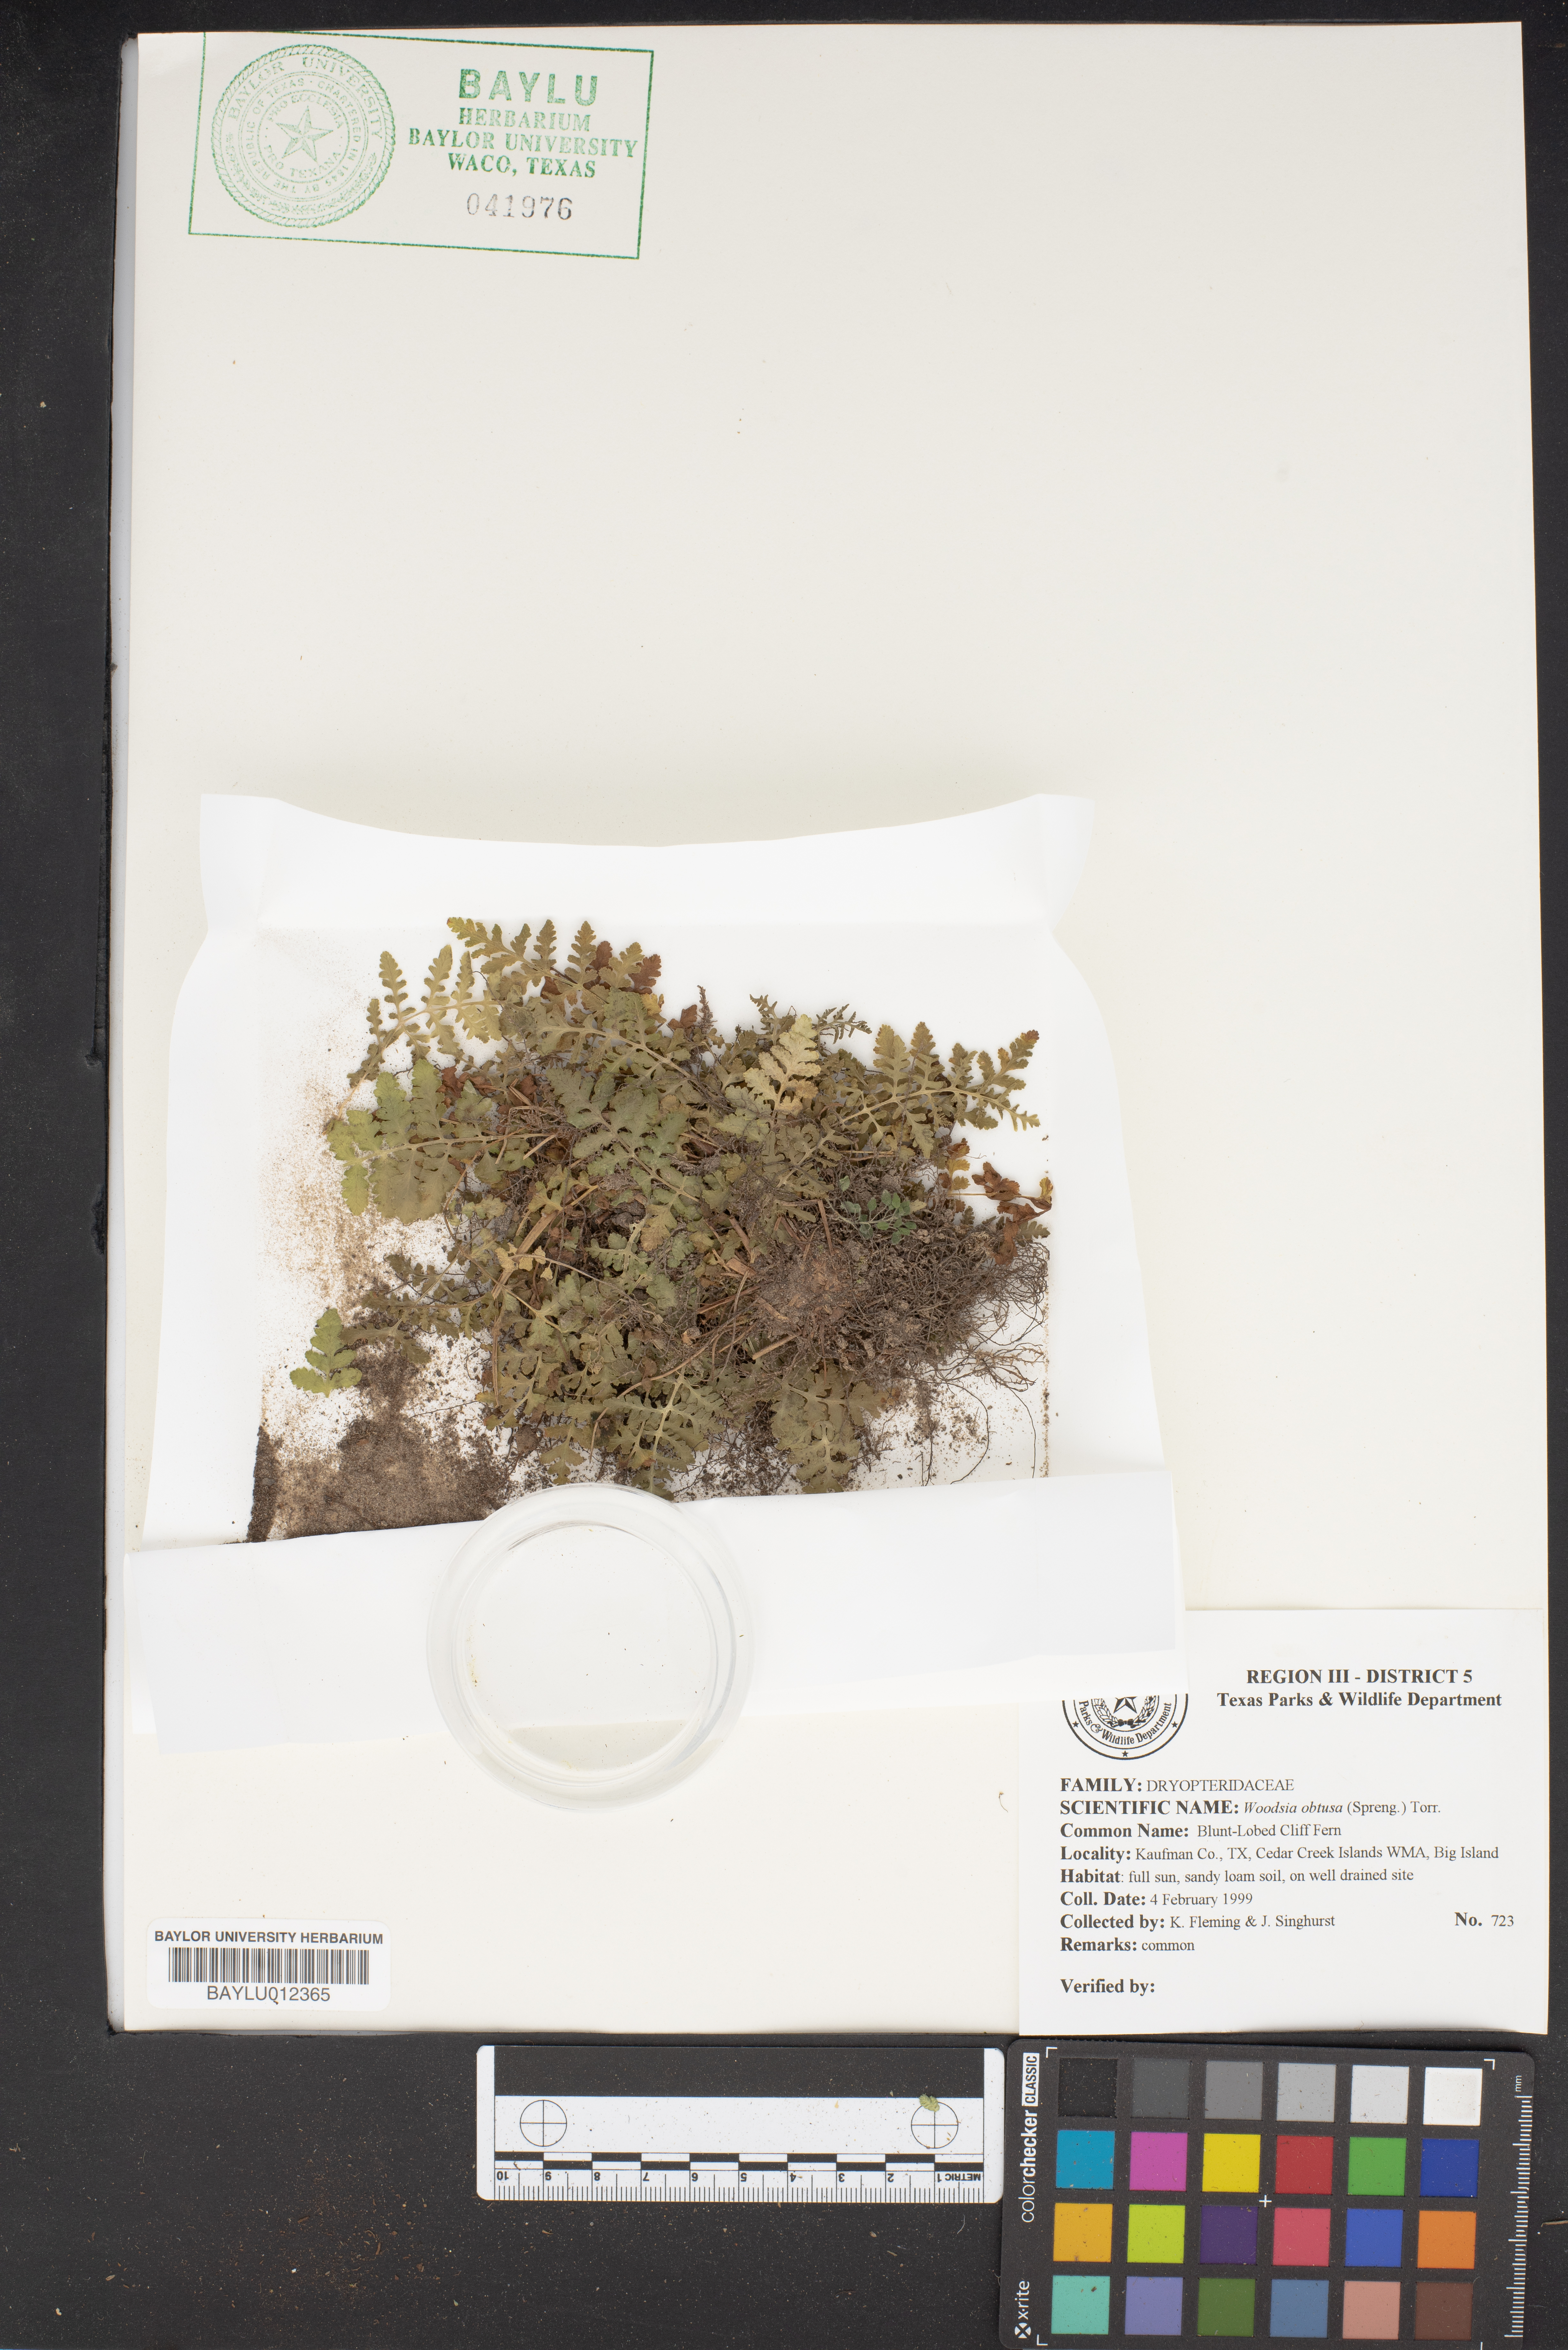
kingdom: Plantae
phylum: Tracheophyta
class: Polypodiopsida
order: Polypodiales
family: Woodsiaceae
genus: Physematium
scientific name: Physematium obtusum
